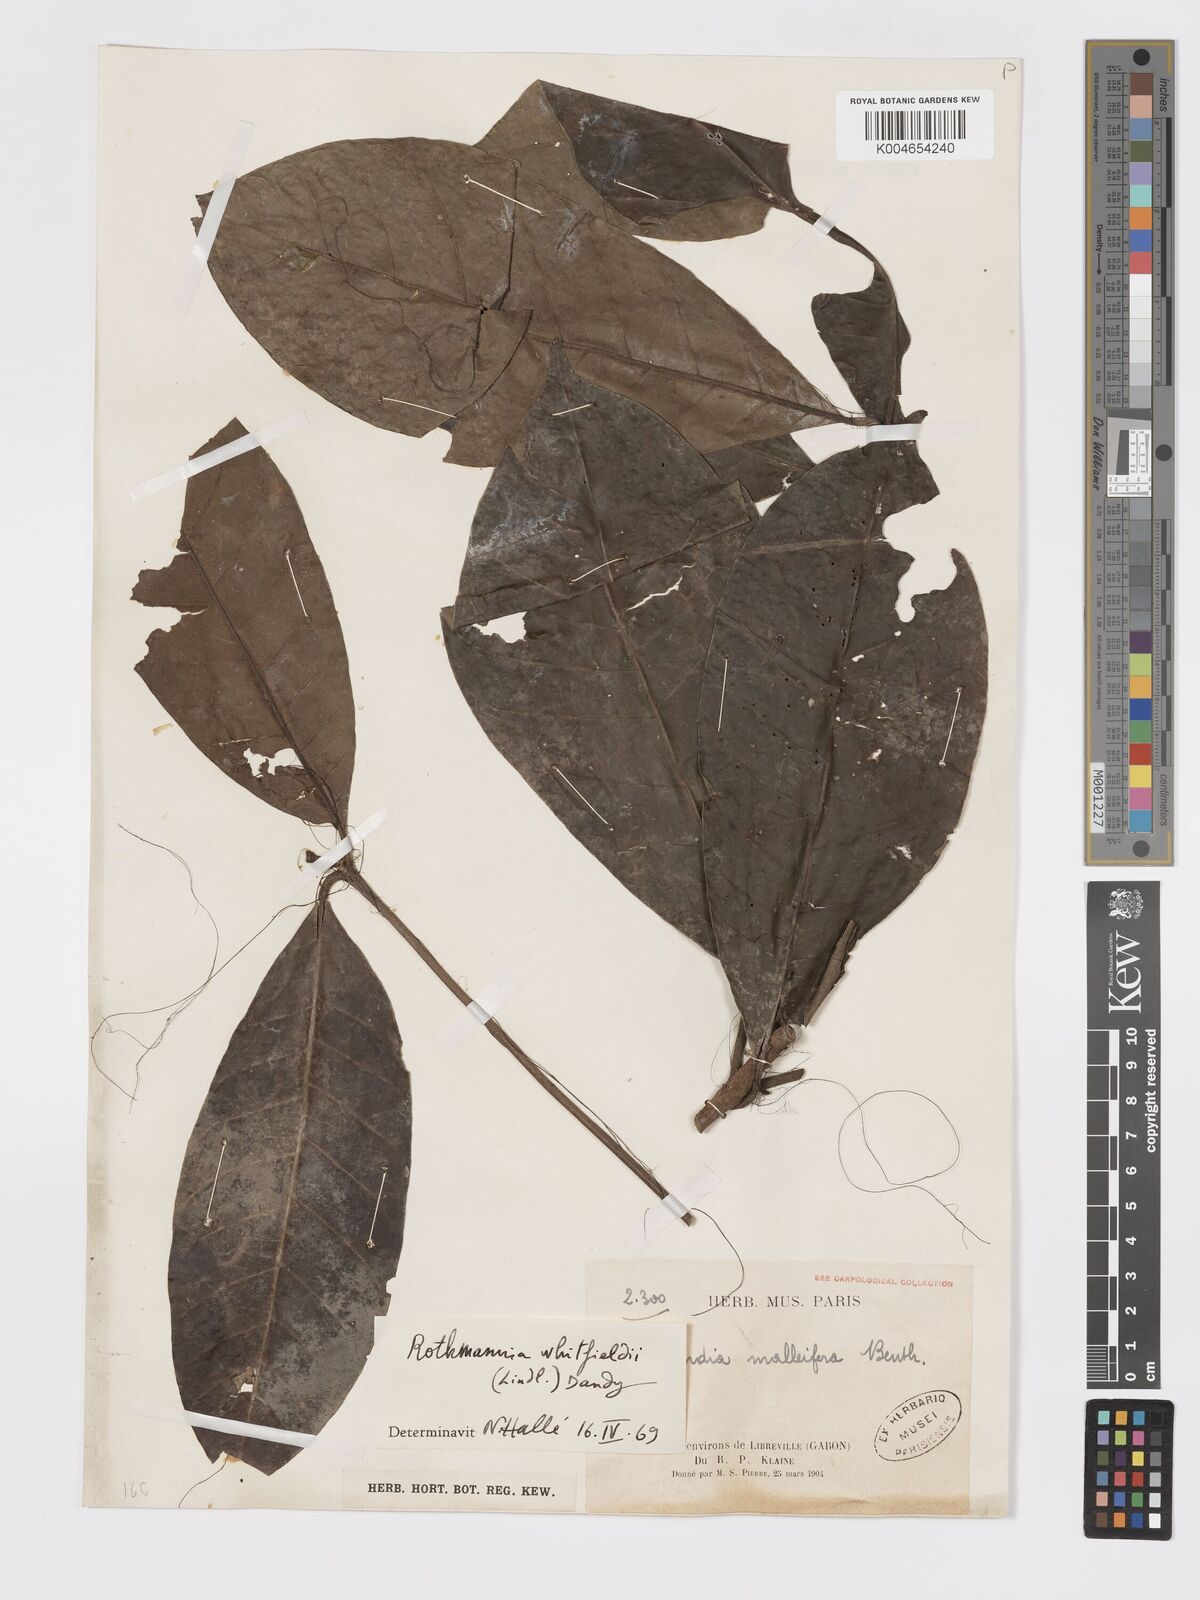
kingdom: Plantae
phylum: Tracheophyta
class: Magnoliopsida
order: Gentianales
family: Rubiaceae
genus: Rothmannia
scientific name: Rothmannia whitfieldii
